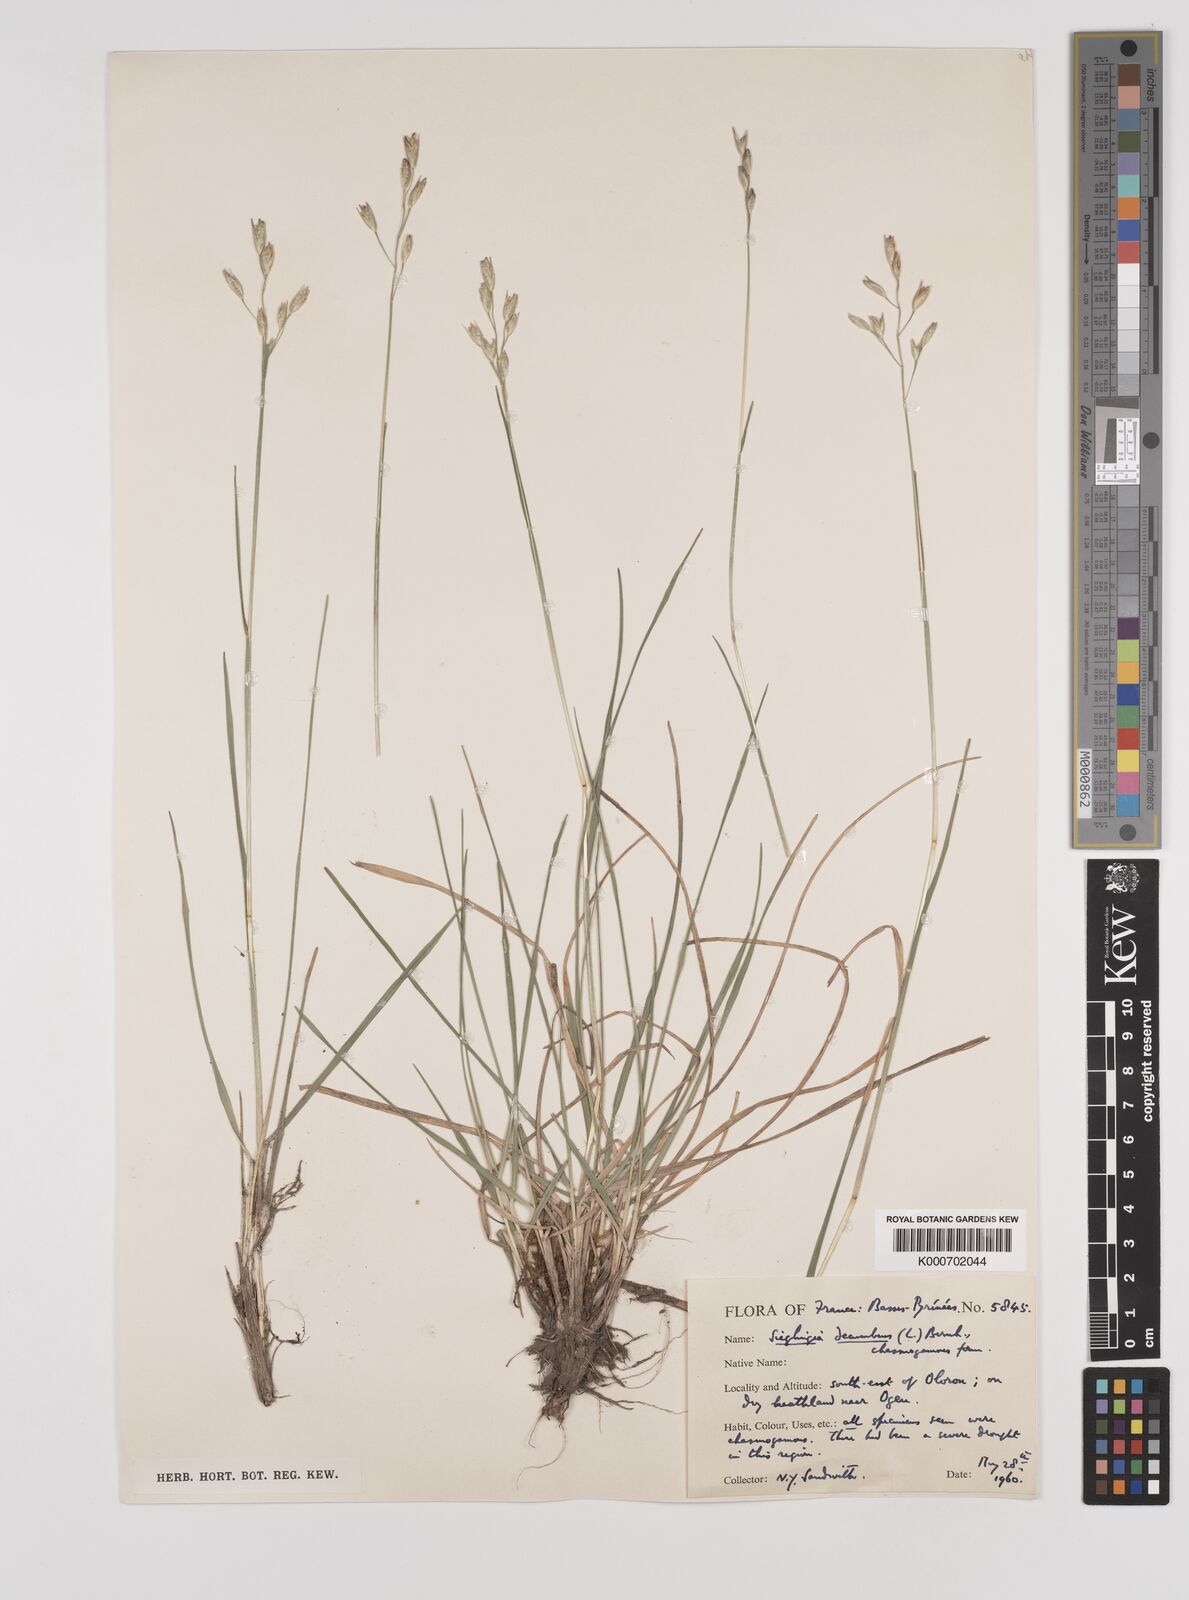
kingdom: Plantae
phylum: Tracheophyta
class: Liliopsida
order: Poales
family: Poaceae
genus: Danthonia
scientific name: Danthonia decumbens
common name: Common heathgrass
